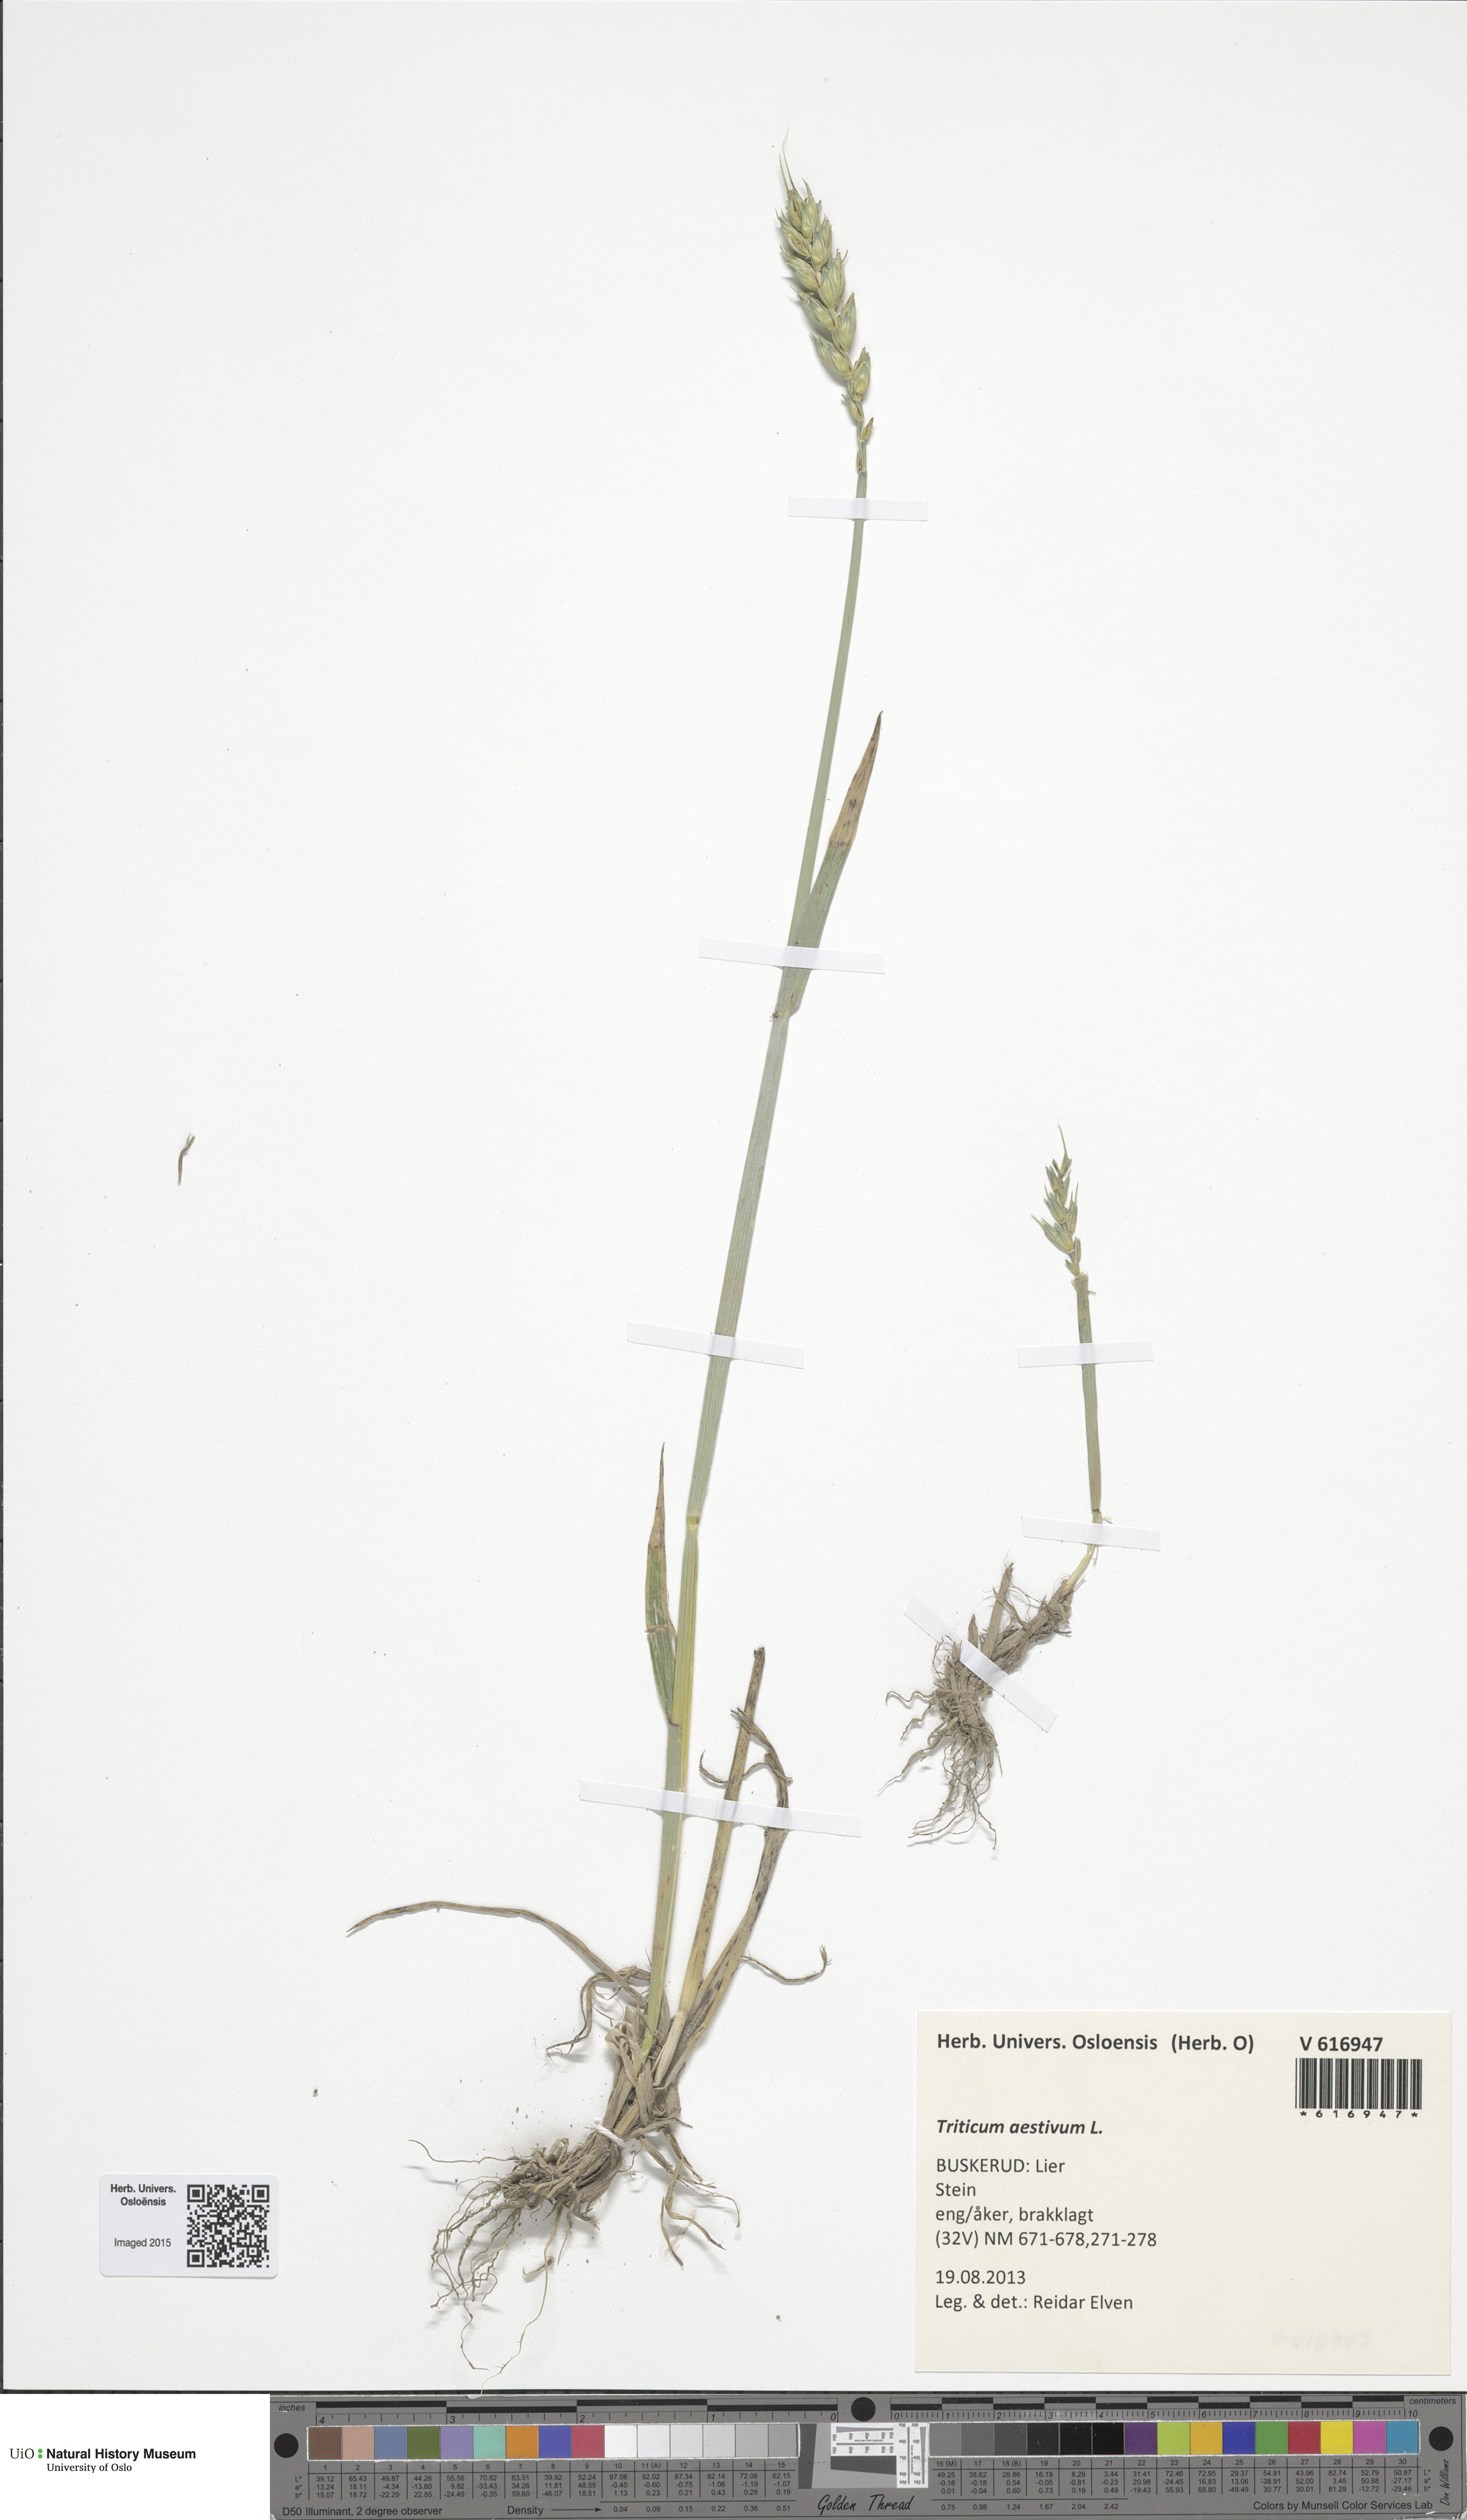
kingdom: Plantae
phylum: Tracheophyta
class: Liliopsida
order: Poales
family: Poaceae
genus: Triticum
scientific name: Triticum aestivum
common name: Common wheat
